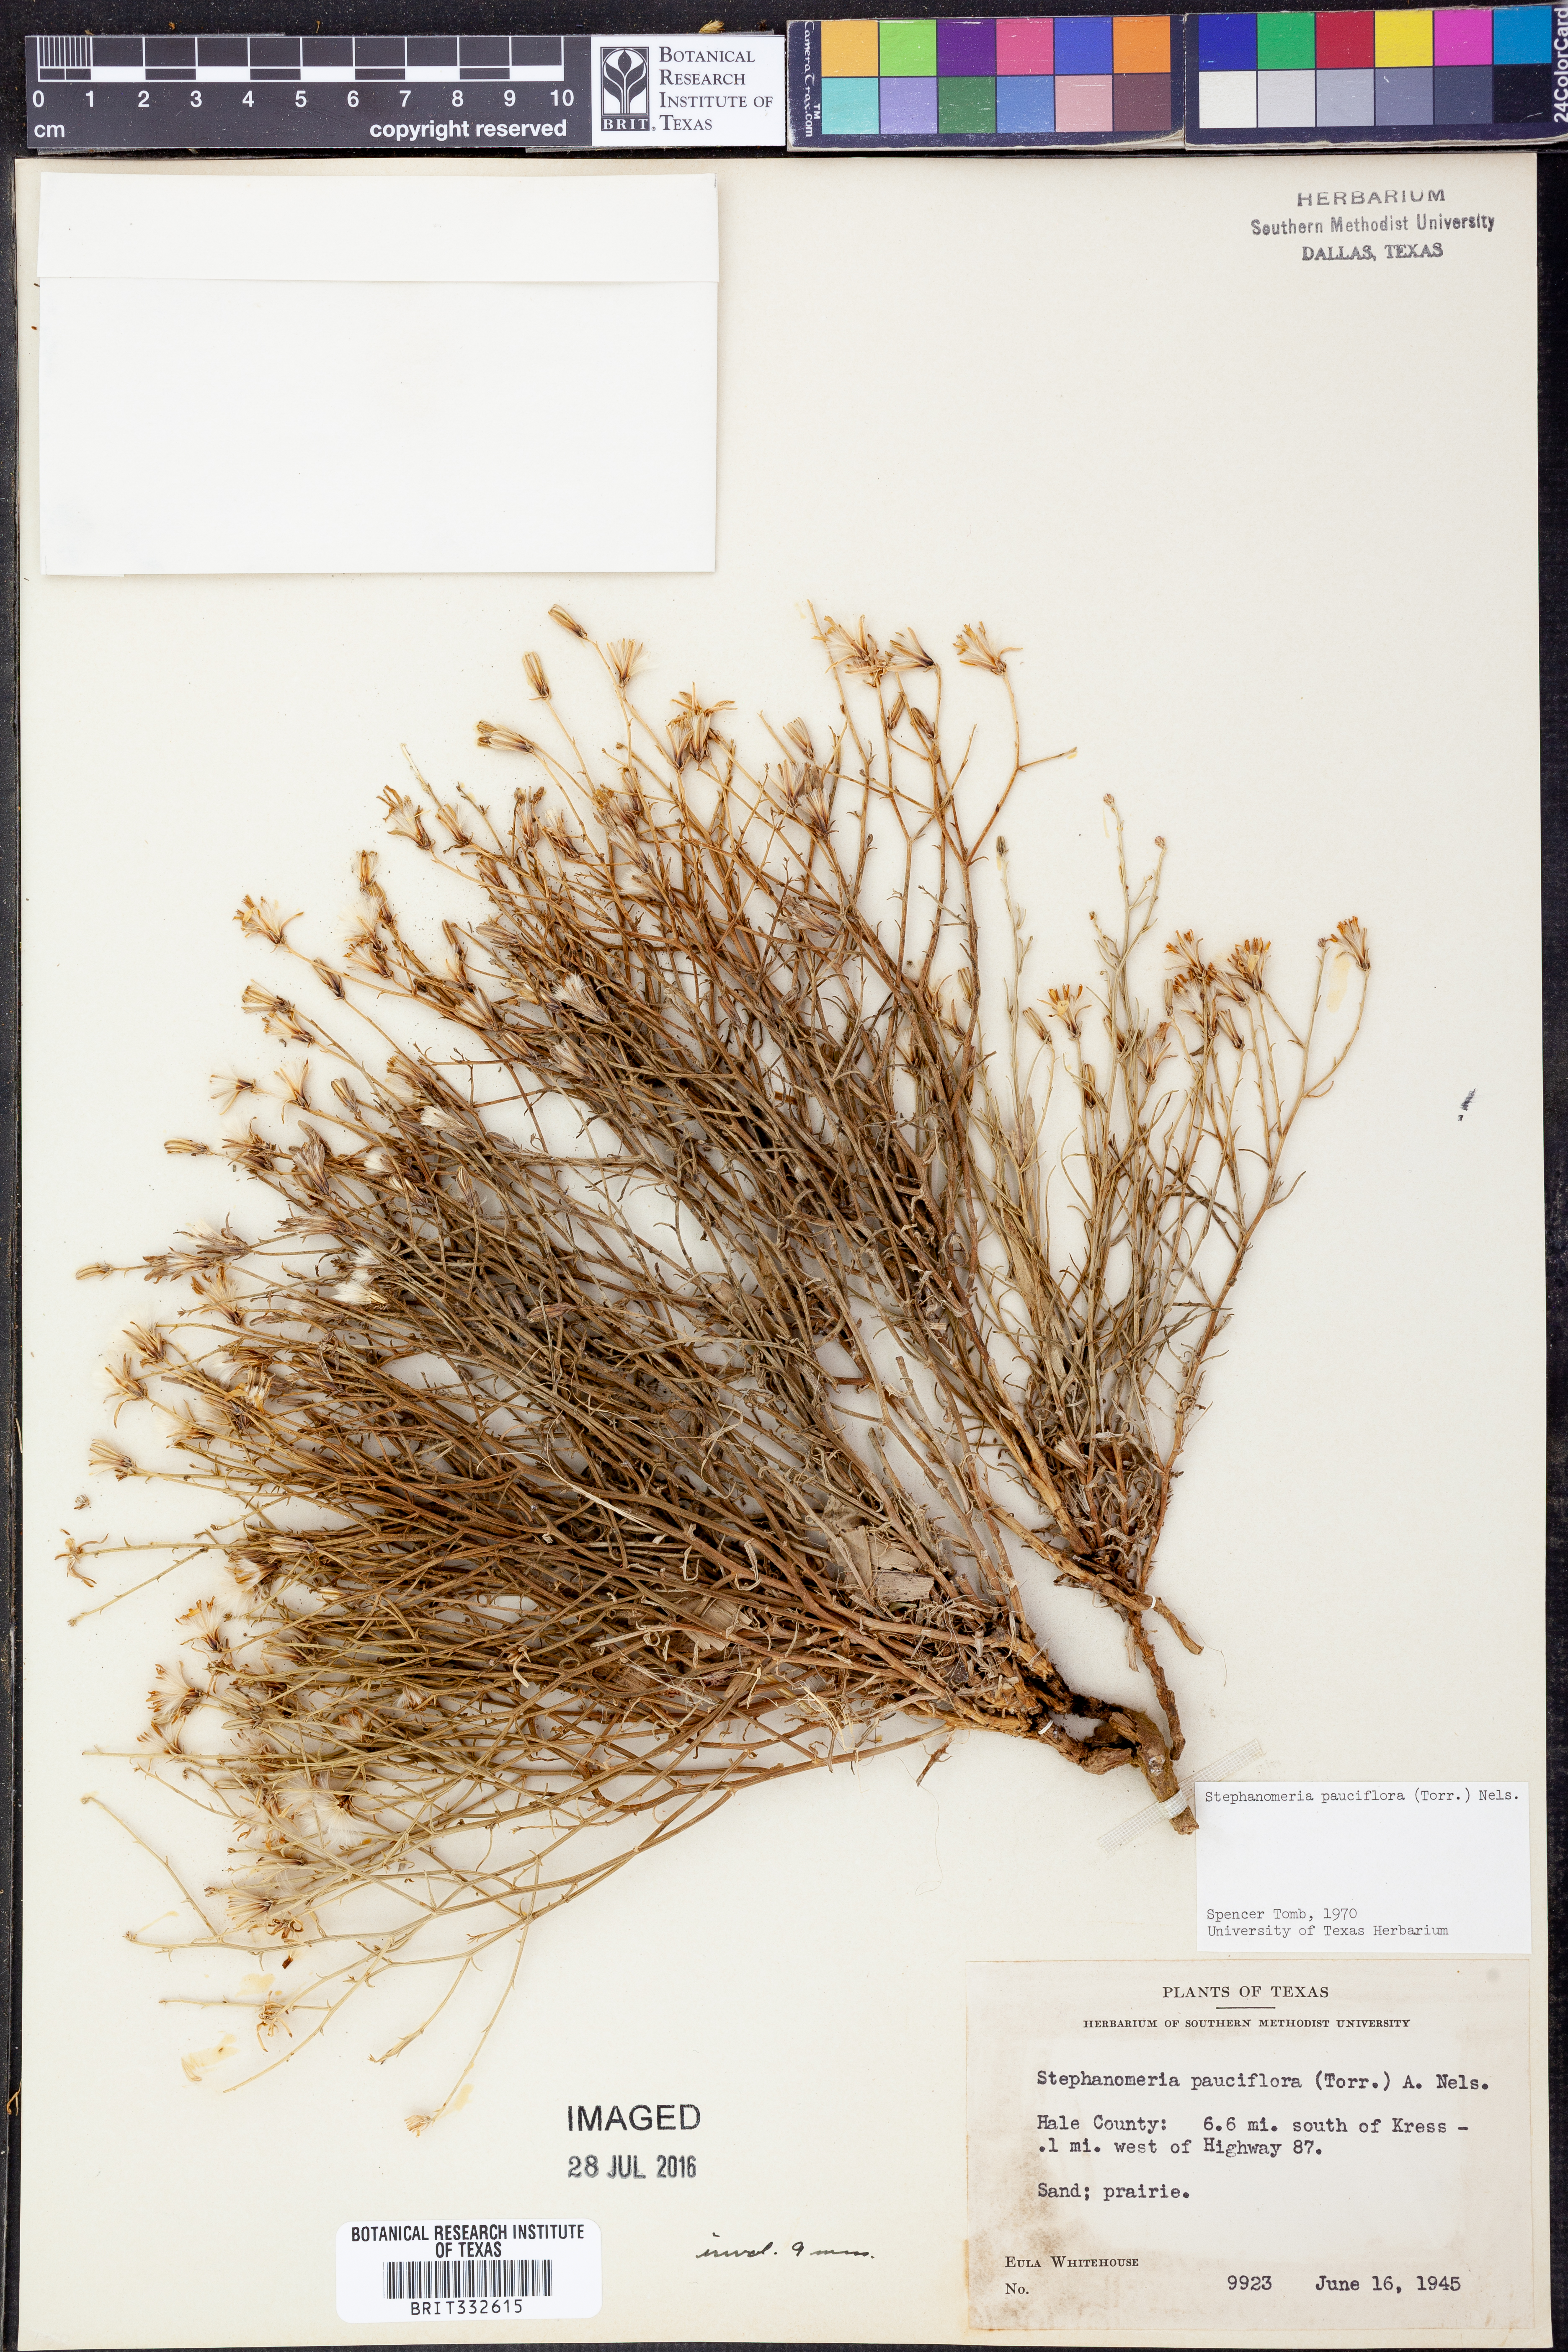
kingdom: Plantae
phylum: Tracheophyta
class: Magnoliopsida
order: Asterales
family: Asteraceae
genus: Stephanomeria
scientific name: Stephanomeria pauciflora
